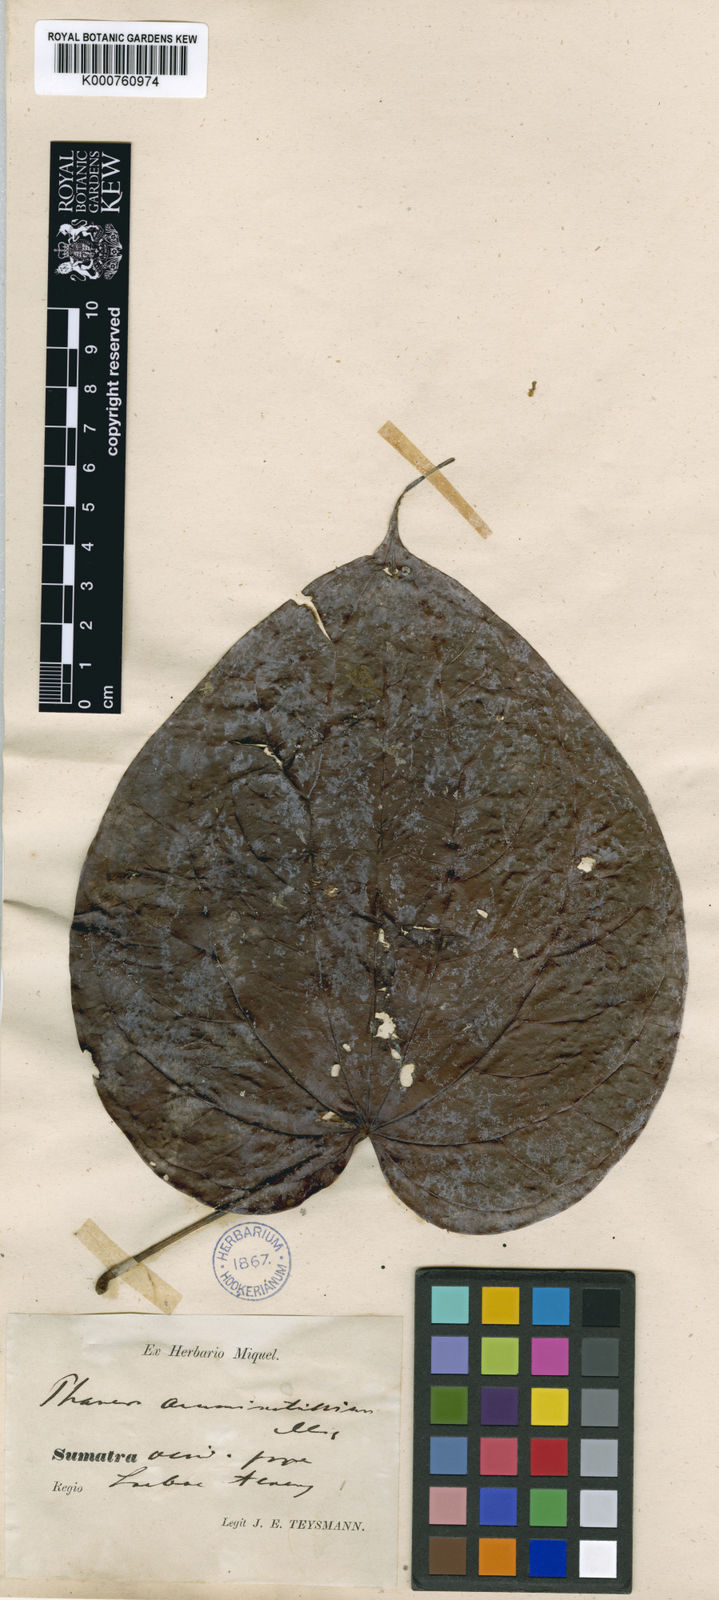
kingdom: Plantae
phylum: Tracheophyta
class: Magnoliopsida
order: Fabales
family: Fabaceae
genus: Phanera
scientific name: Phanera
